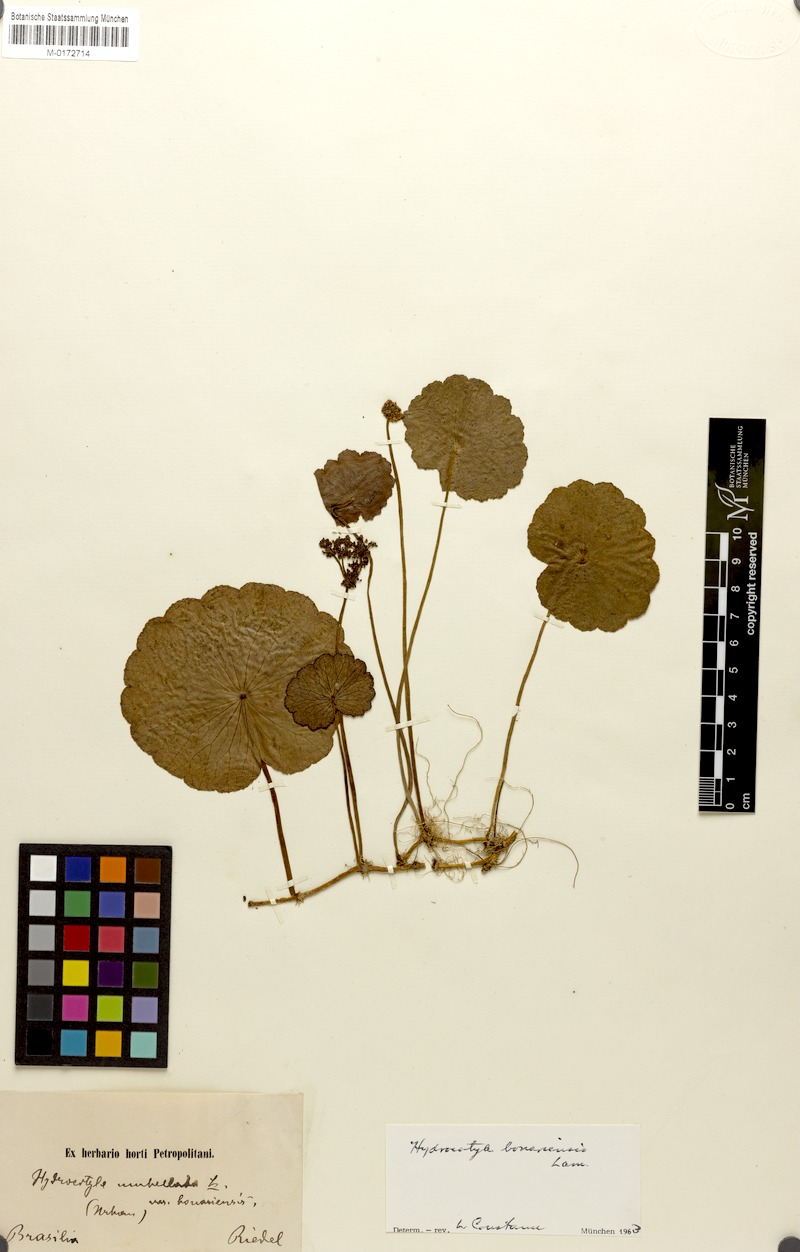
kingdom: Plantae
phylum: Tracheophyta
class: Magnoliopsida
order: Apiales
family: Araliaceae
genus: Hydrocotyle
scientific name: Hydrocotyle bonariensis
